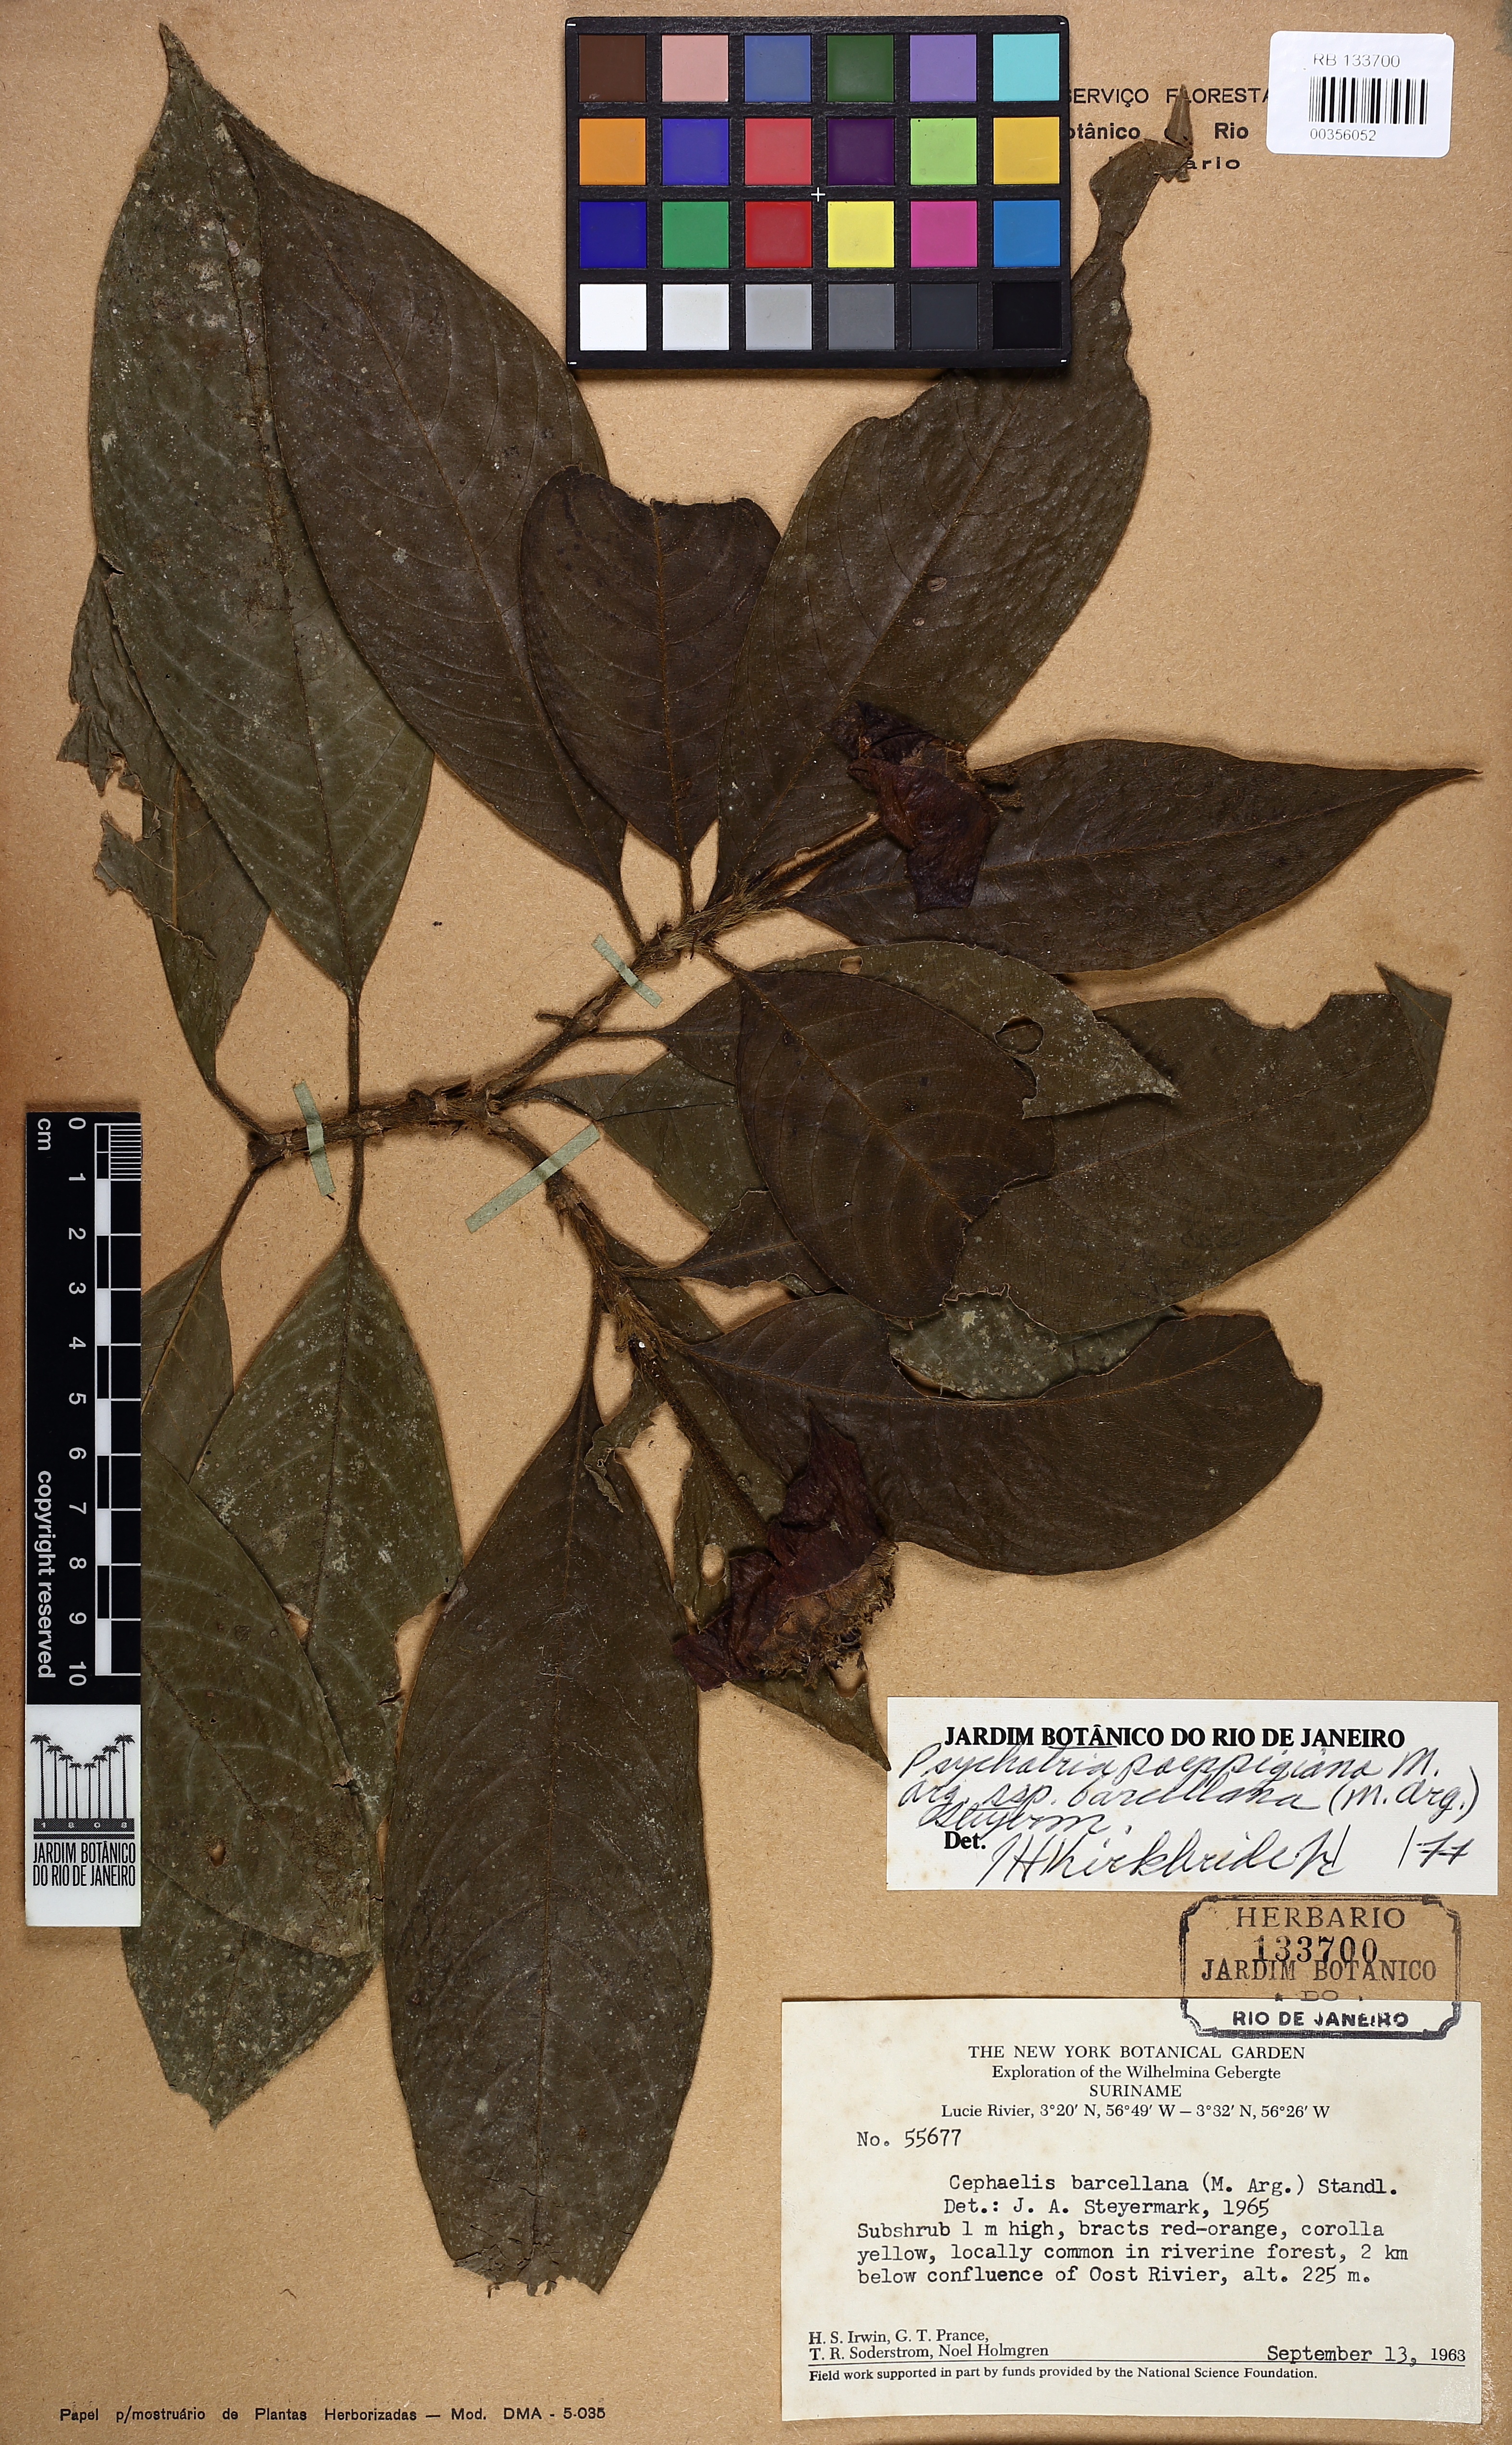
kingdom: Plantae
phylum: Tracheophyta
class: Magnoliopsida
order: Gentianales
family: Rubiaceae
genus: Palicourea
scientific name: Palicourea tomentosa
